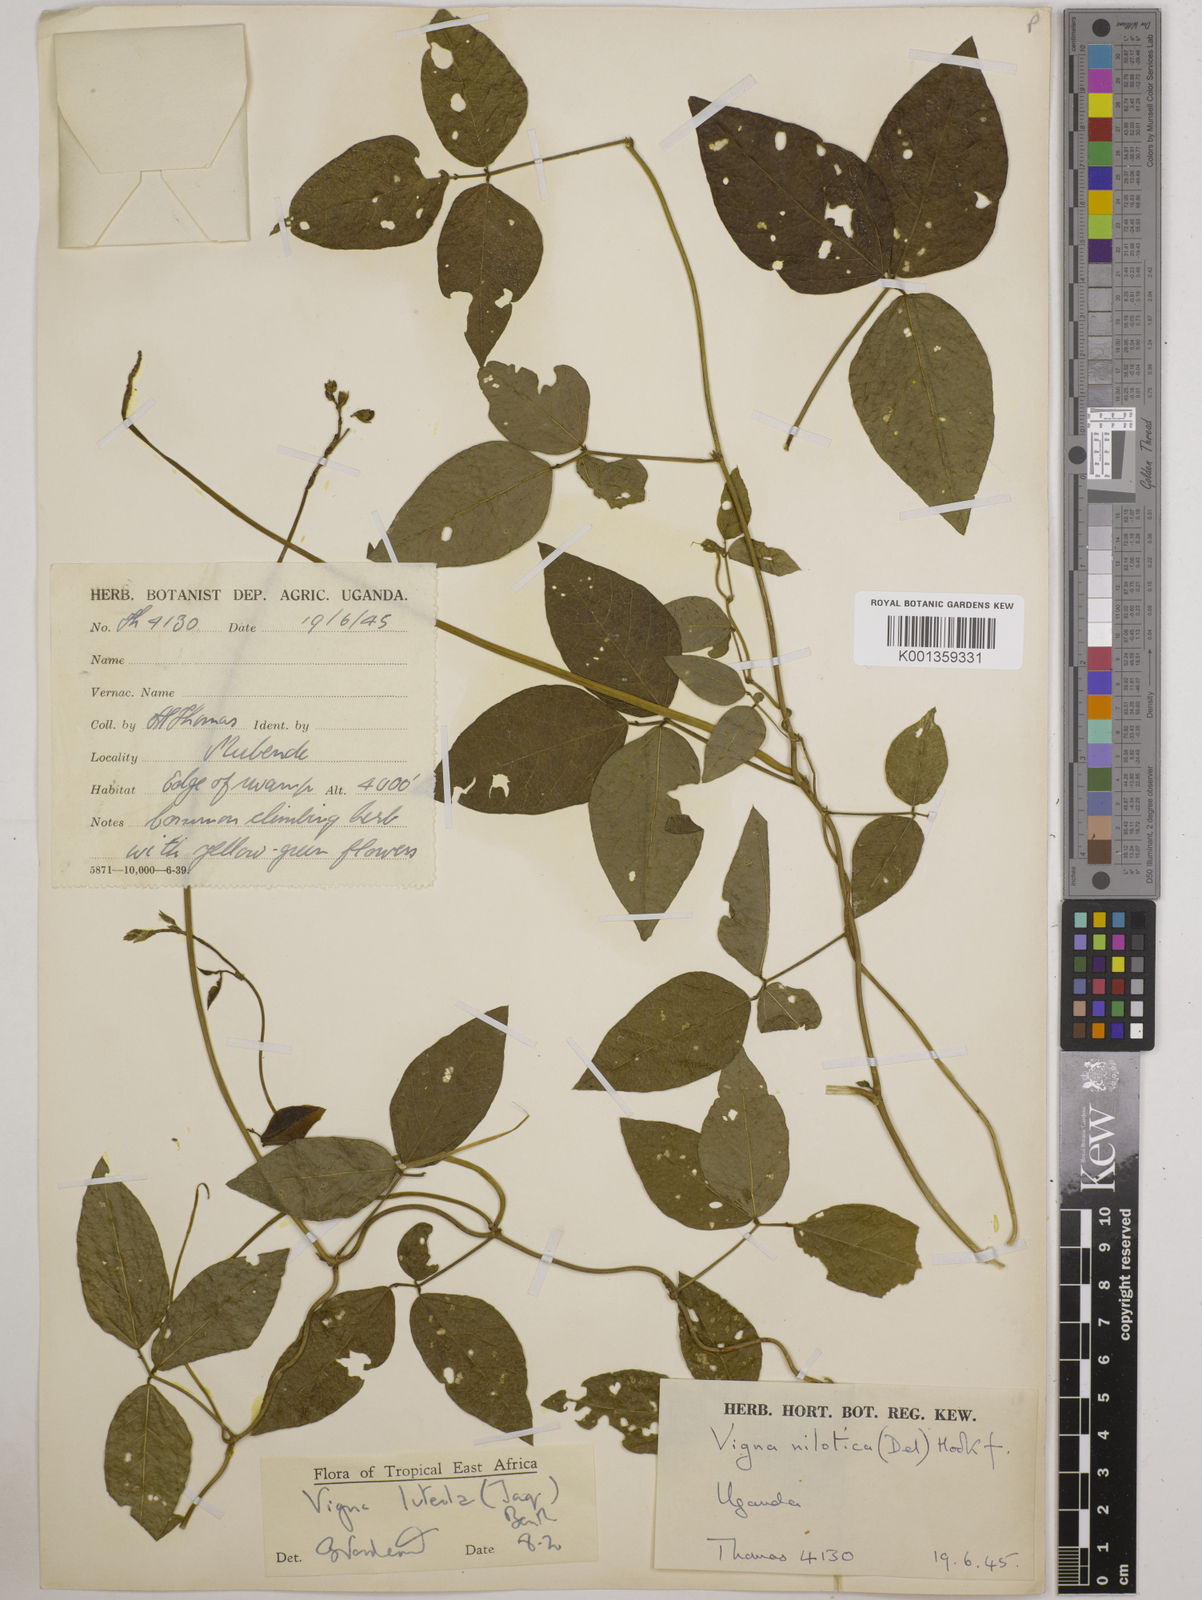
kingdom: Plantae
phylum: Tracheophyta
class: Magnoliopsida
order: Fabales
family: Fabaceae
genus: Vigna
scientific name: Vigna luteola
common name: Hairypod cowpea
